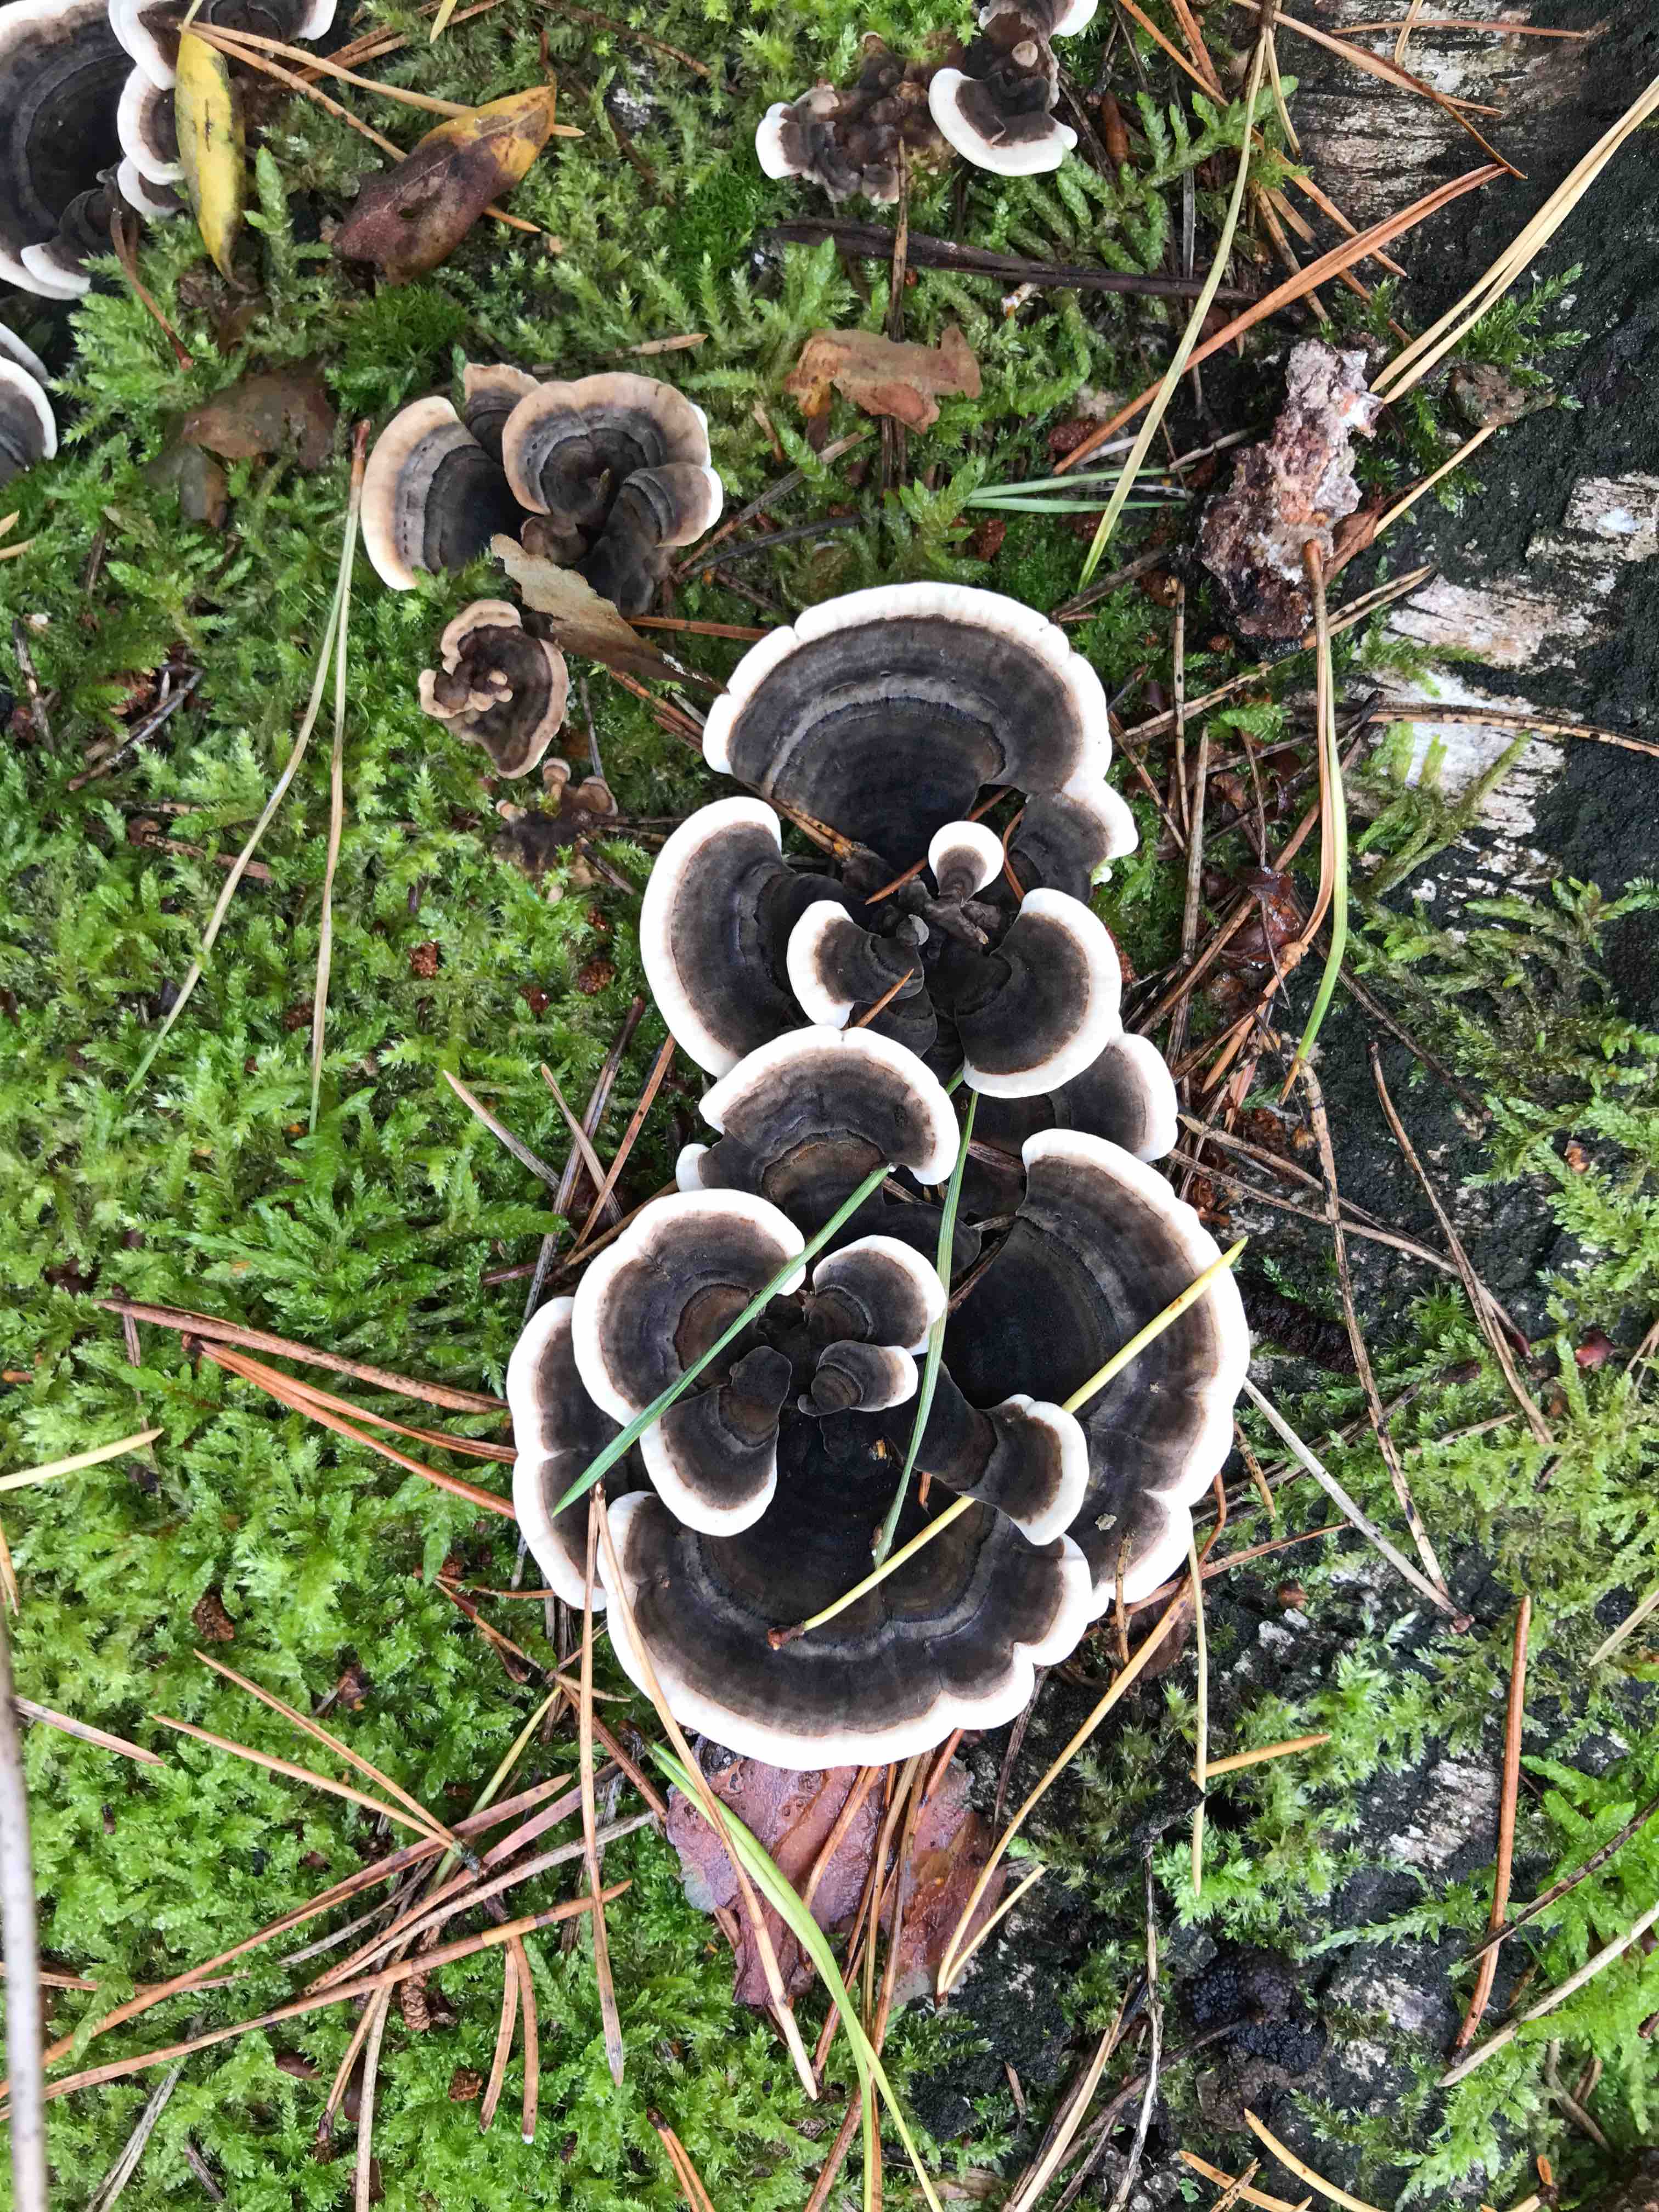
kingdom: Fungi
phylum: Basidiomycota
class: Agaricomycetes
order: Polyporales
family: Polyporaceae
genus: Trametes
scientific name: Trametes versicolor
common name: broget læderporesvamp
